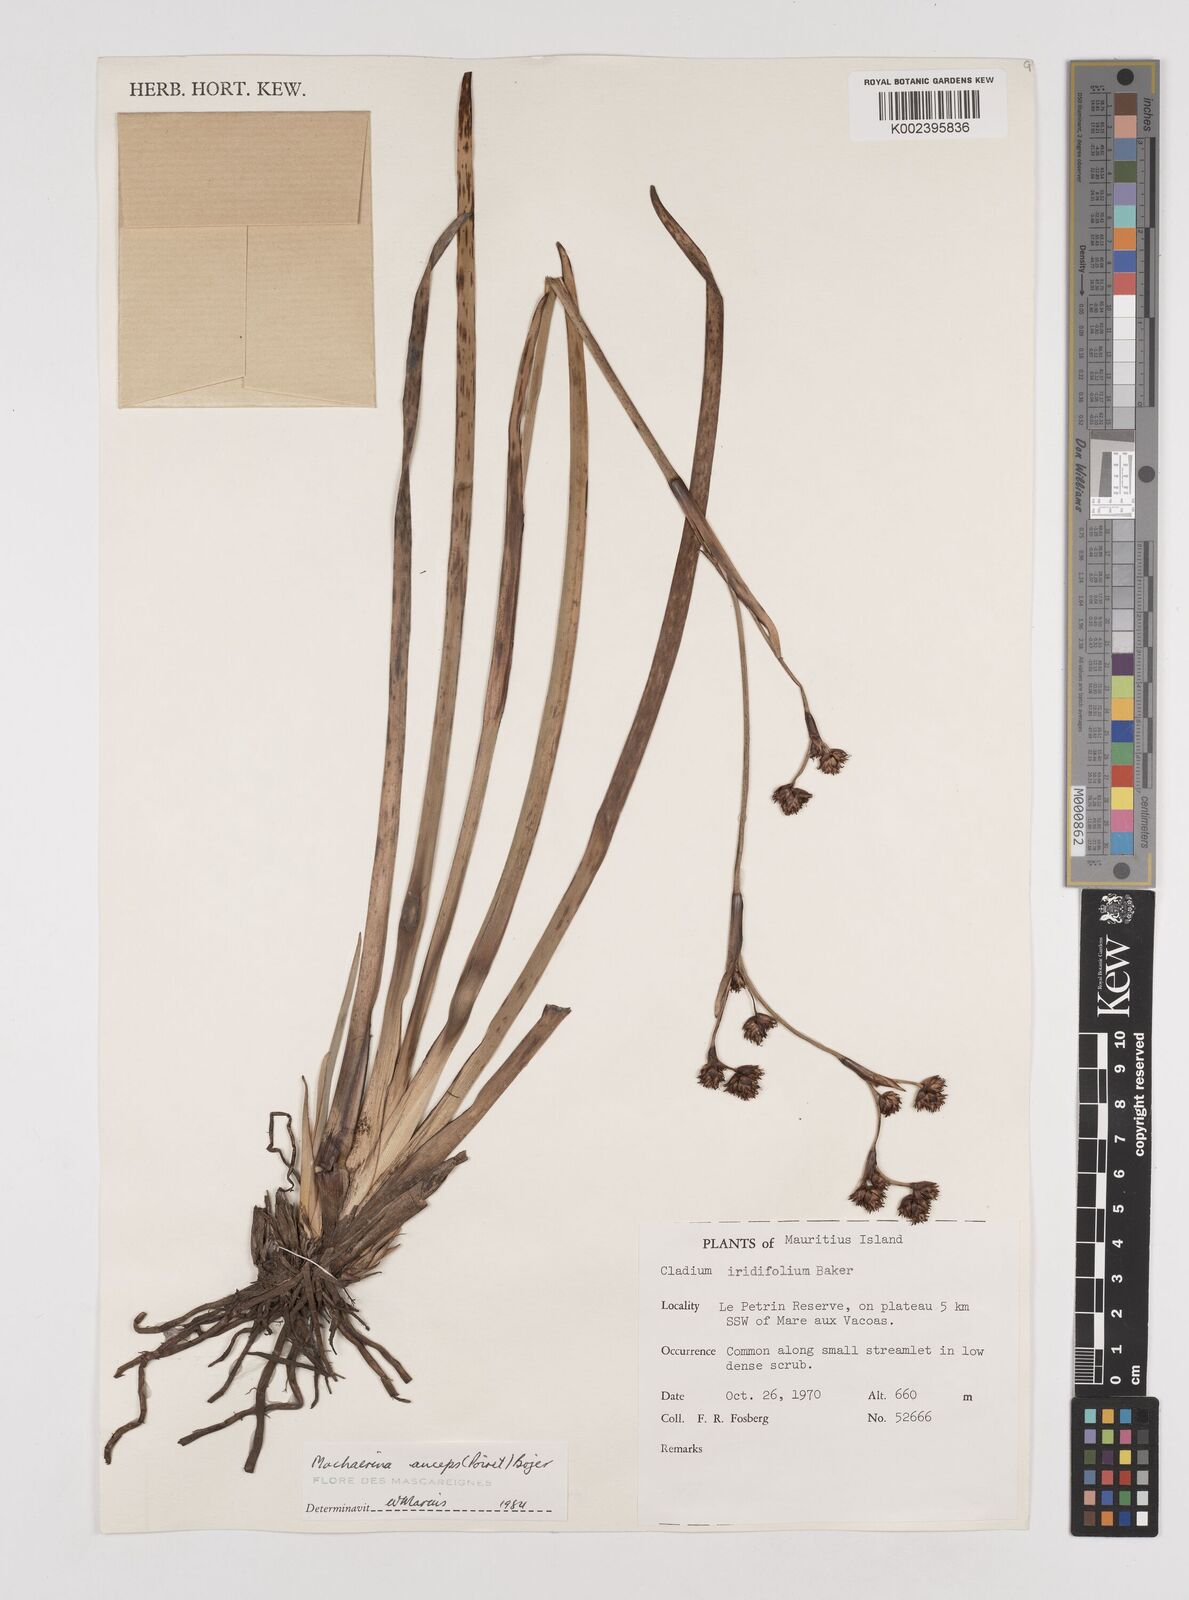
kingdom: Plantae
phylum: Tracheophyta
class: Liliopsida
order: Poales
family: Cyperaceae
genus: Machaerina
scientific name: Machaerina anceps
